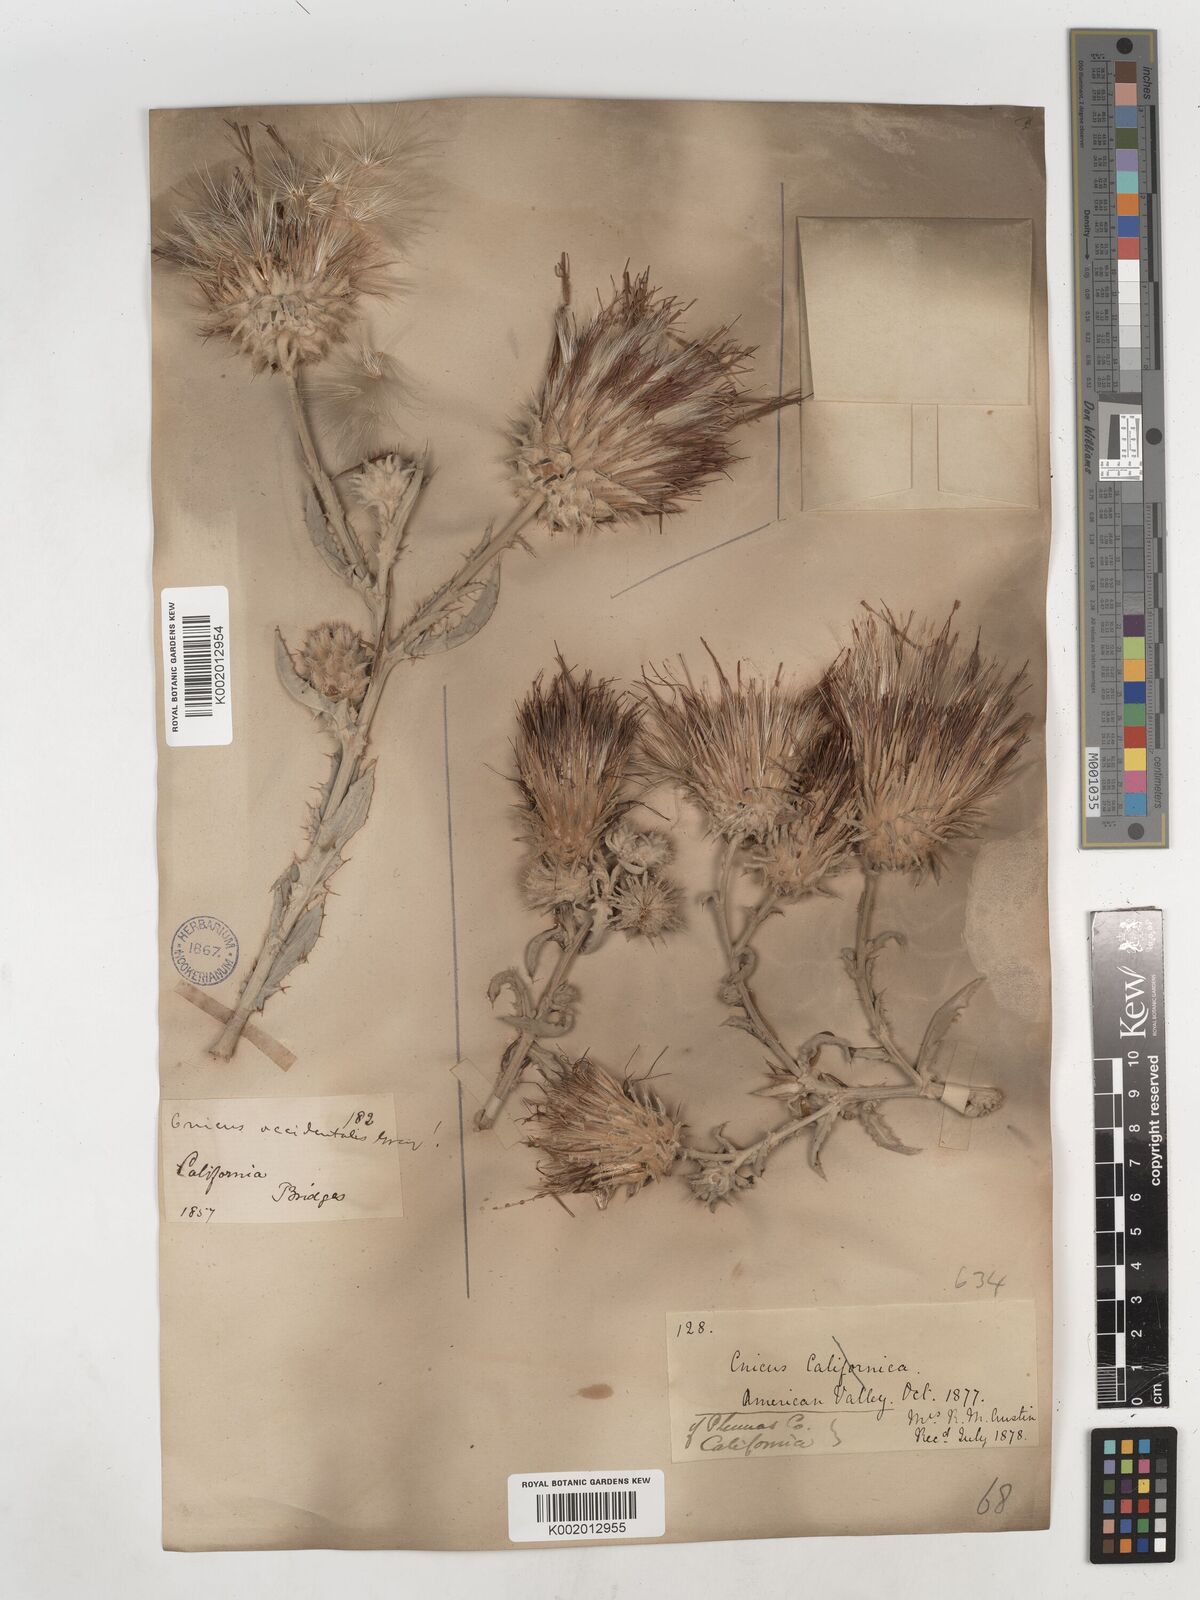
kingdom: Plantae
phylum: Tracheophyta
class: Magnoliopsida
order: Asterales
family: Asteraceae
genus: Cirsium
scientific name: Cirsium occidentale
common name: Western thistle
